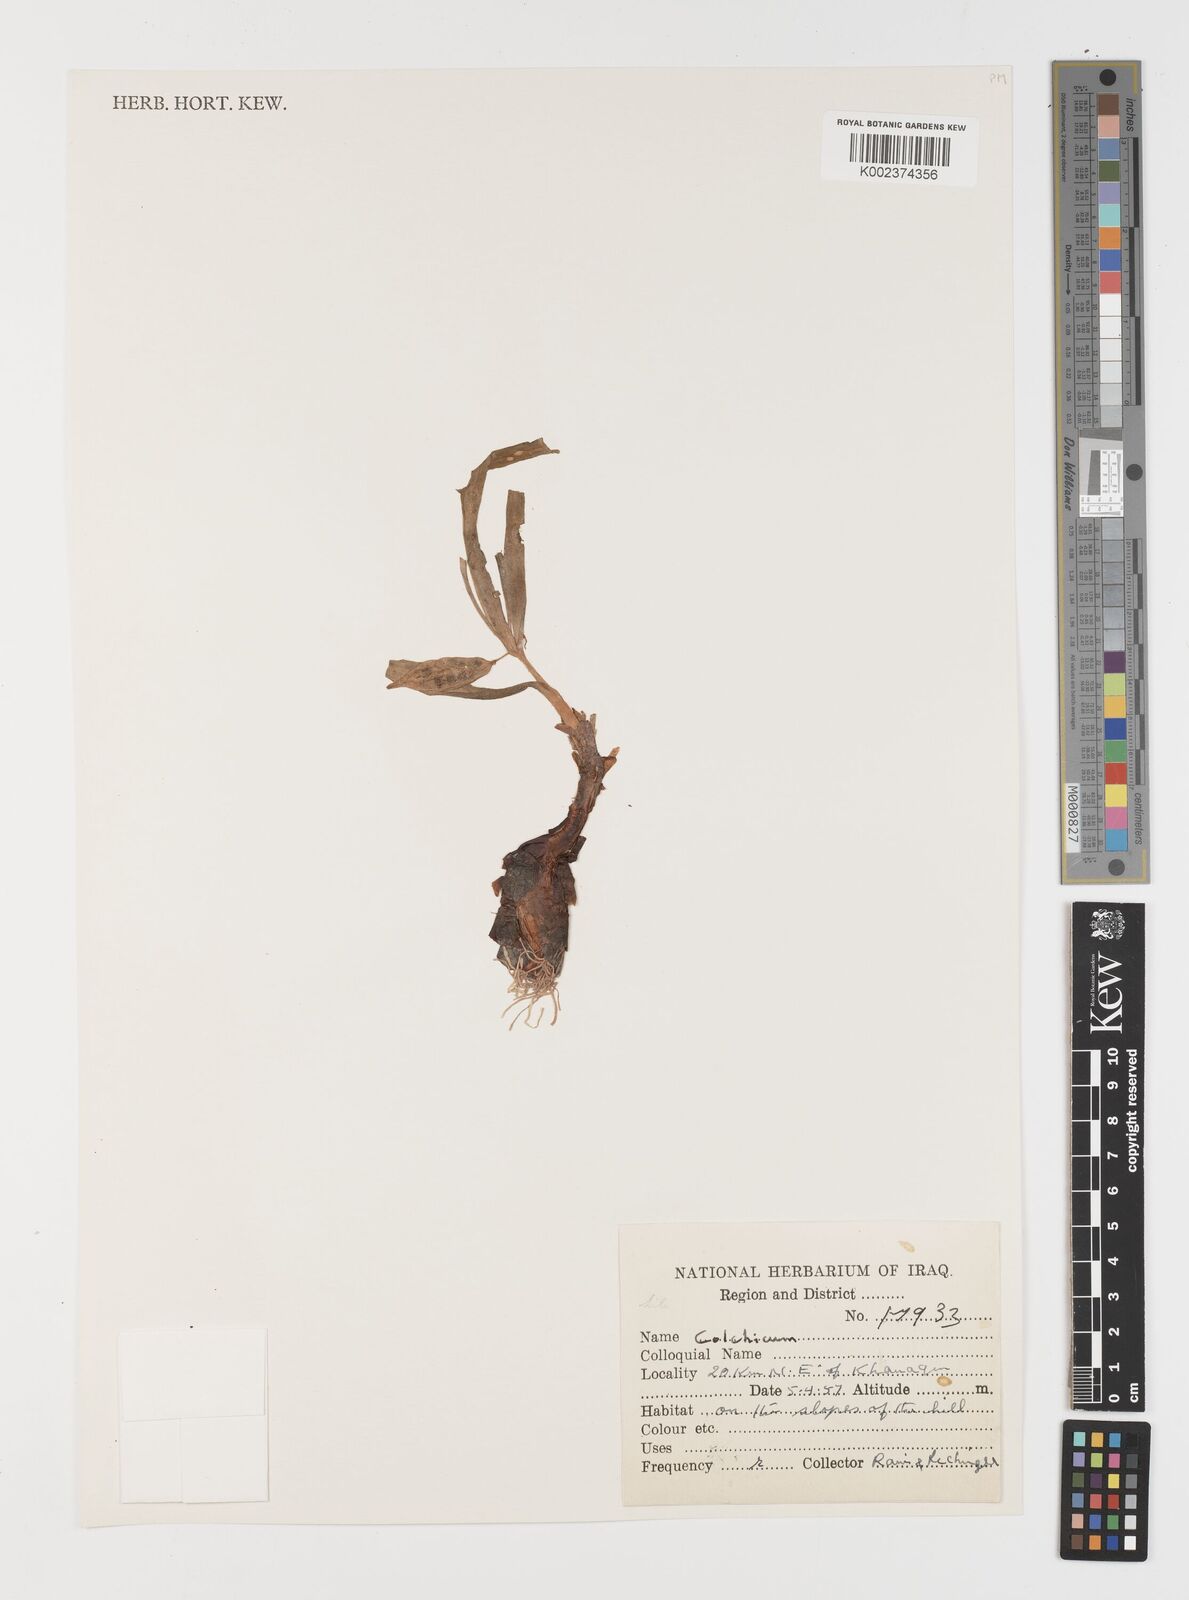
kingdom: Plantae
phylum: Tracheophyta
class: Liliopsida
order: Liliales
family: Colchicaceae
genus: Colchicum
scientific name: Colchicum
